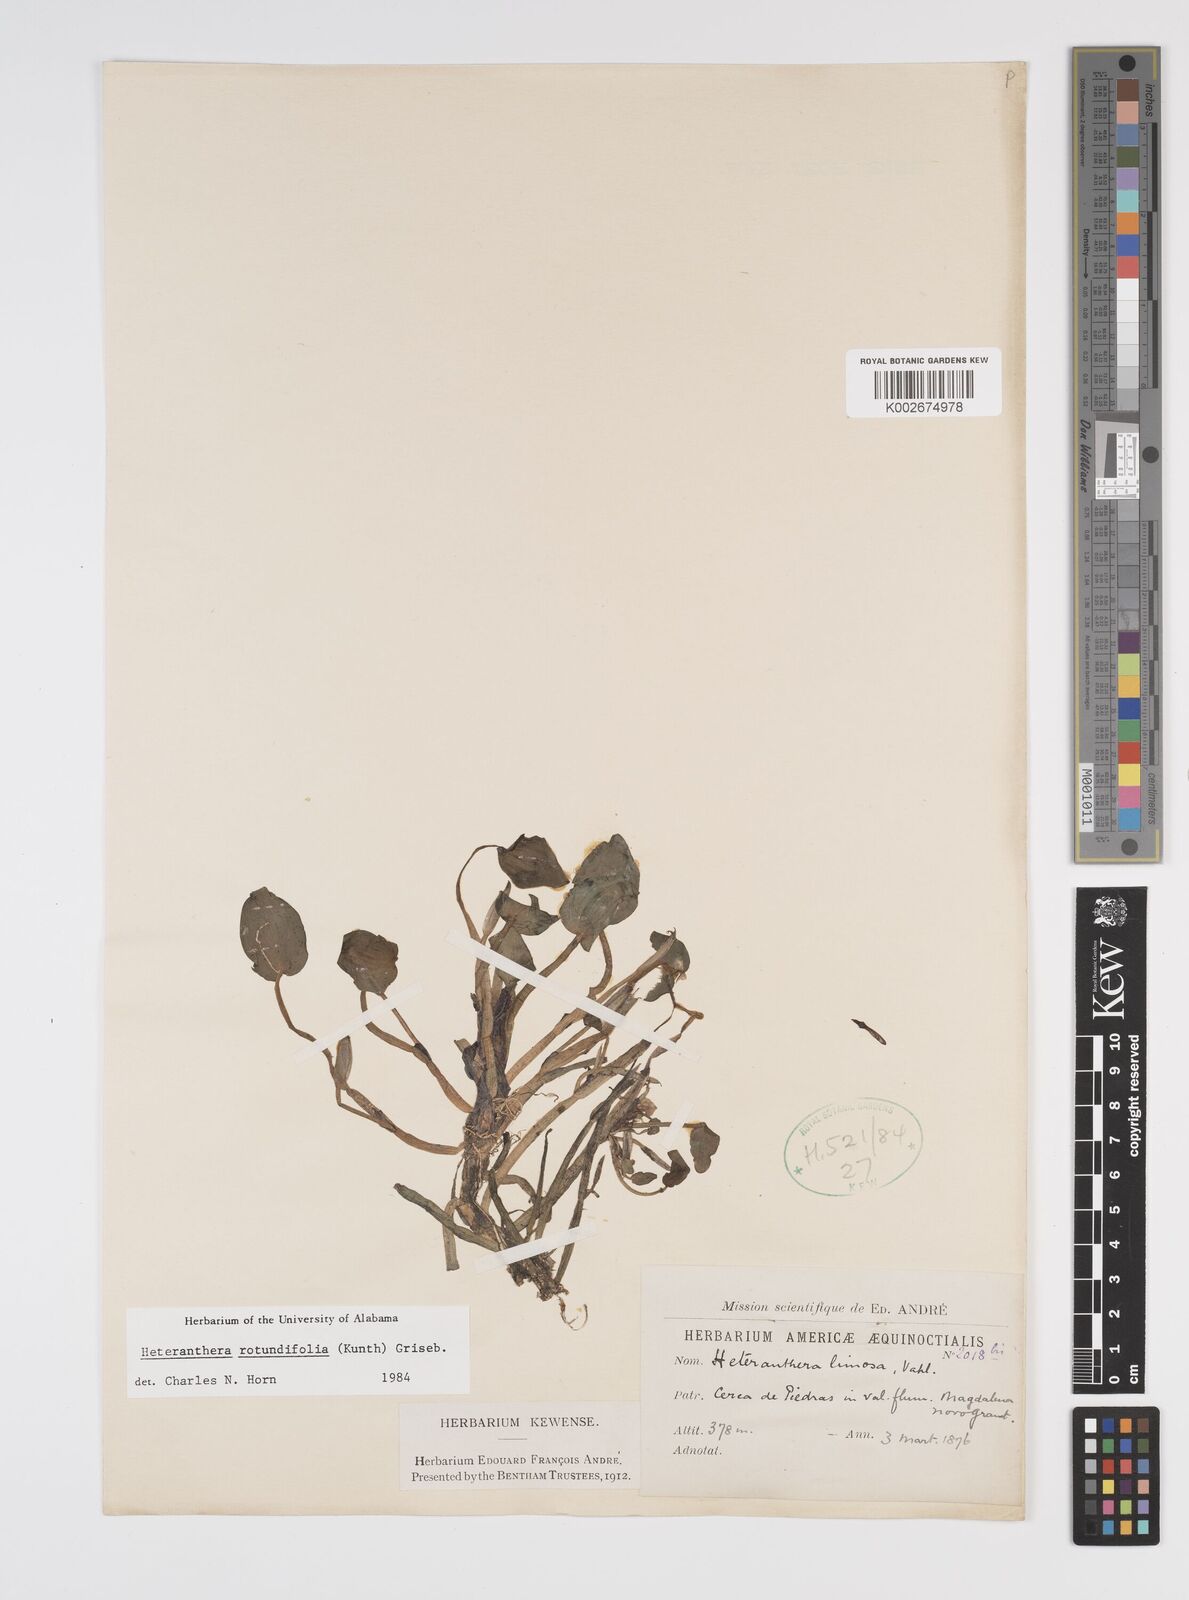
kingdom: Plantae
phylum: Tracheophyta
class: Liliopsida
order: Commelinales
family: Pontederiaceae
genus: Heteranthera
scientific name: Heteranthera rotundifolia
